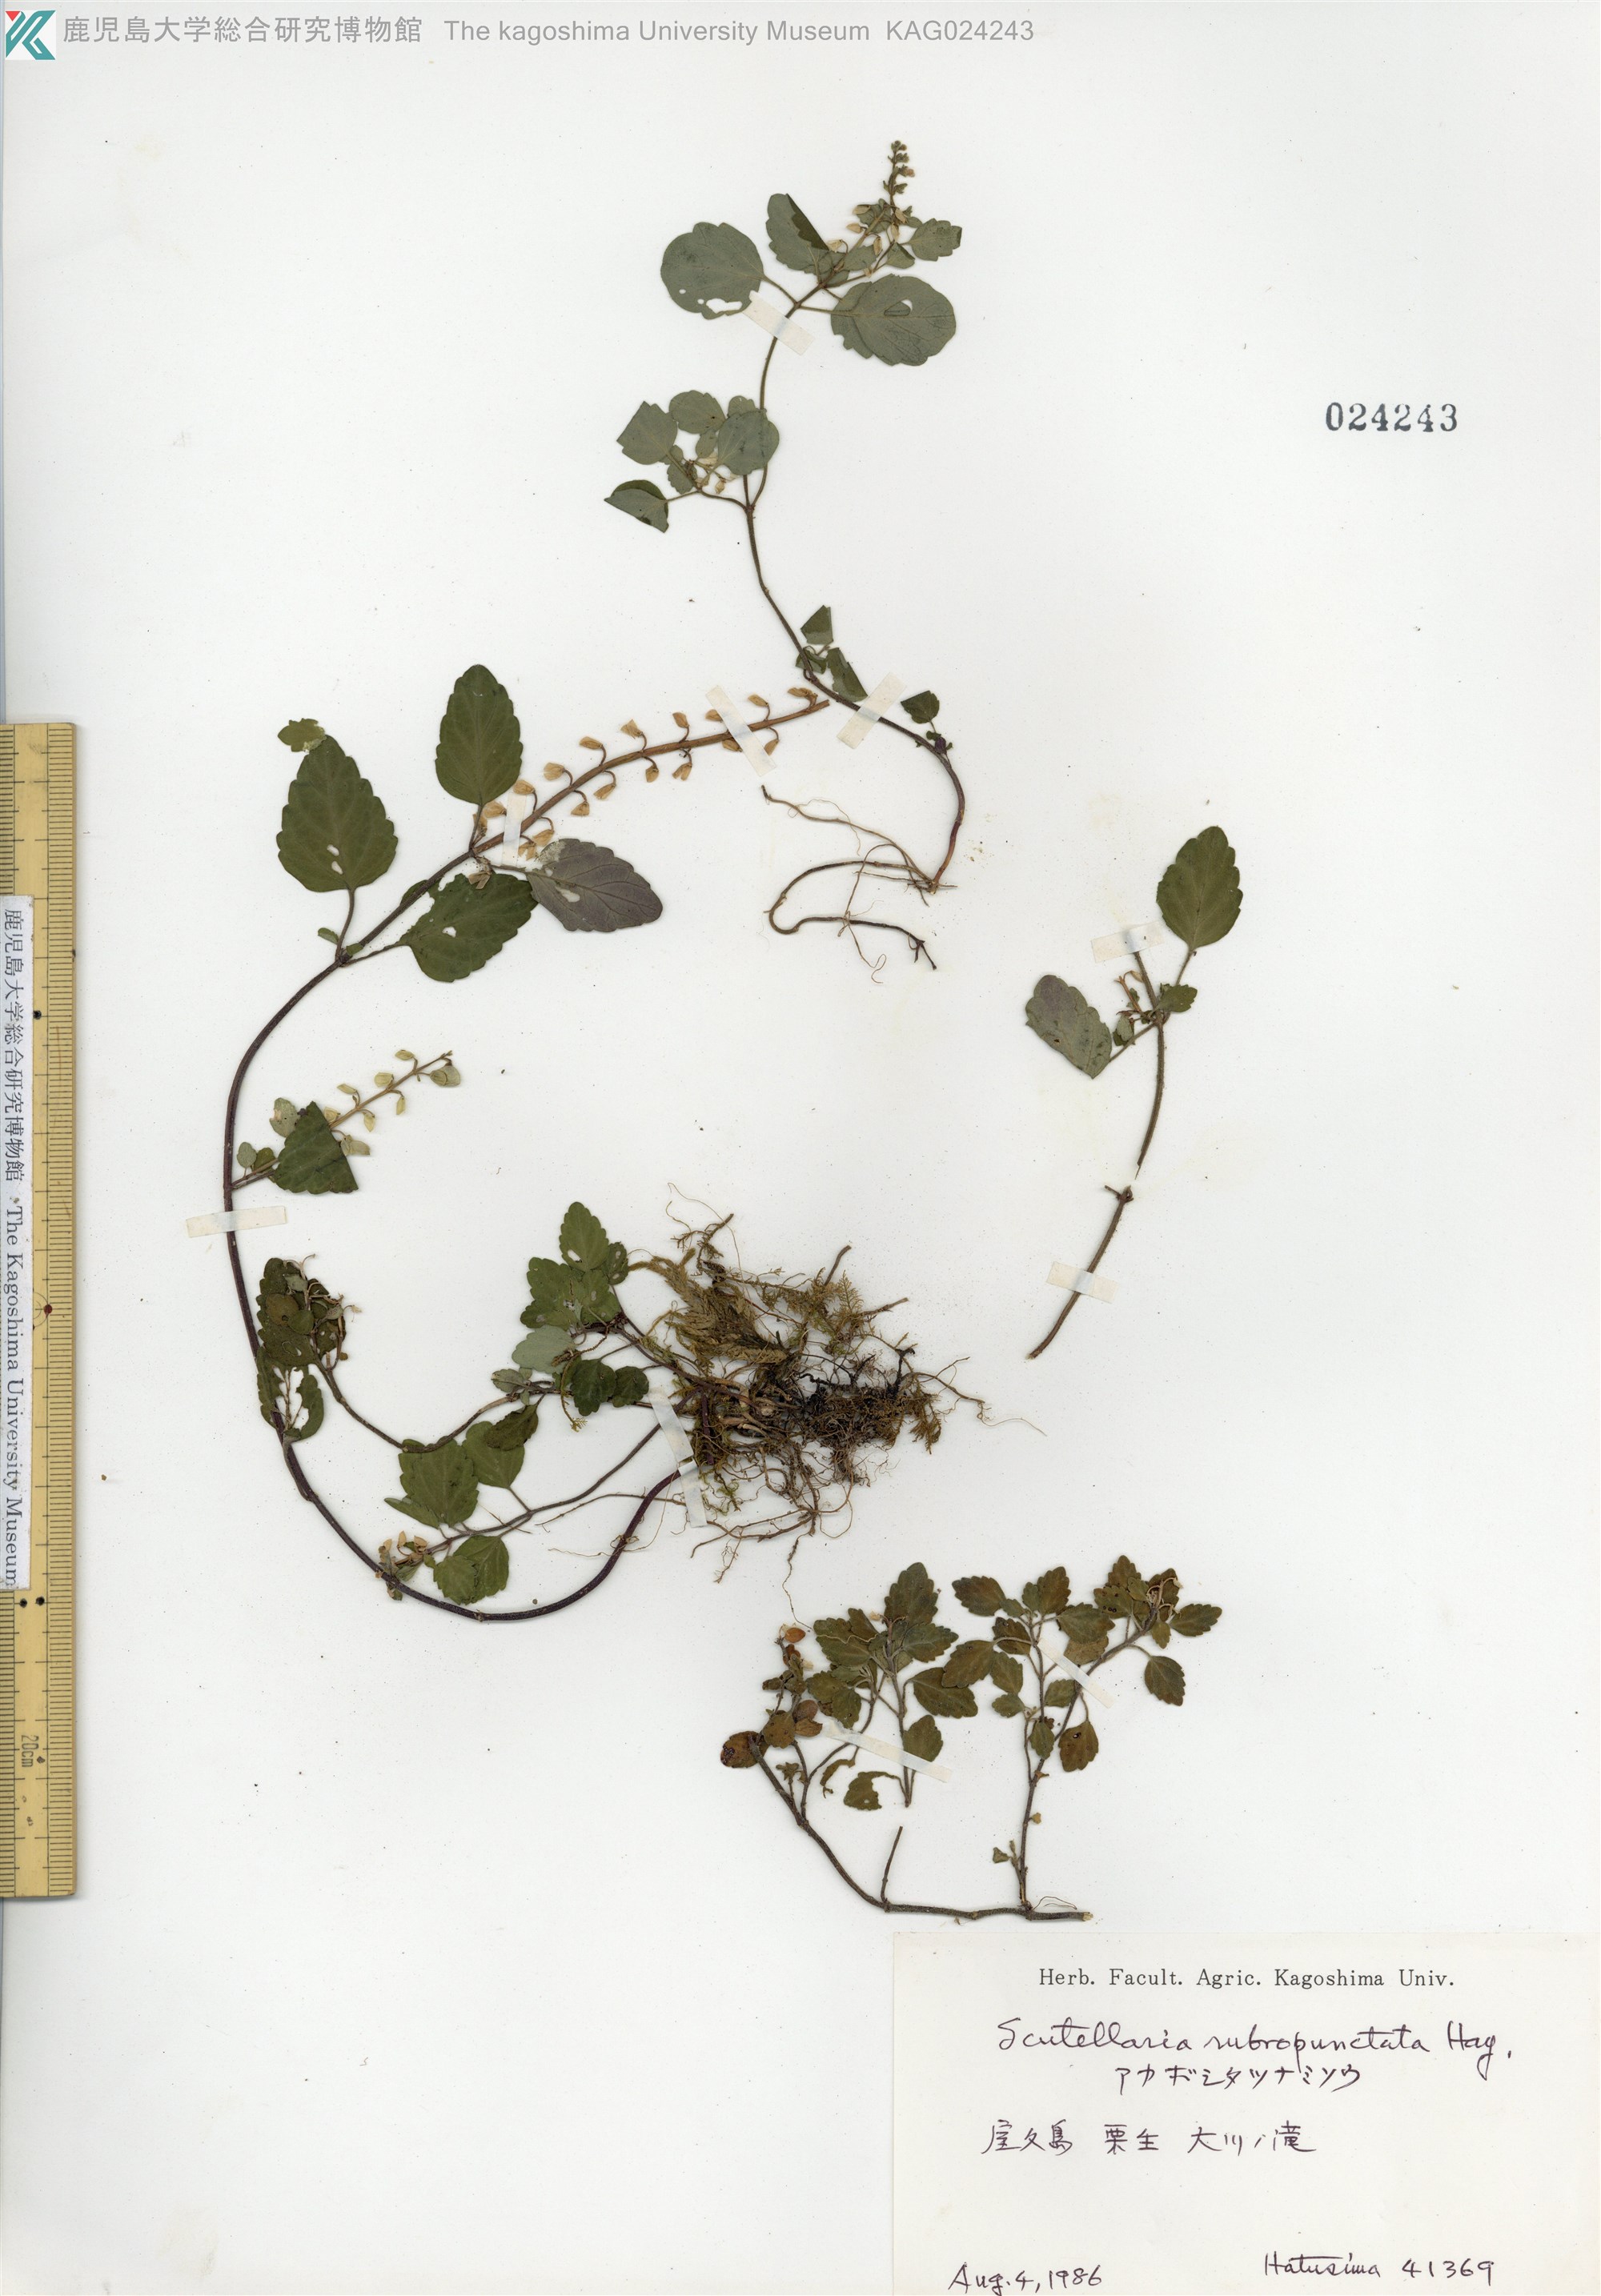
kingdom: Plantae
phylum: Tracheophyta
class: Magnoliopsida
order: Lamiales
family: Lamiaceae
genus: Scutellaria
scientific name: Scutellaria rubropunctata
